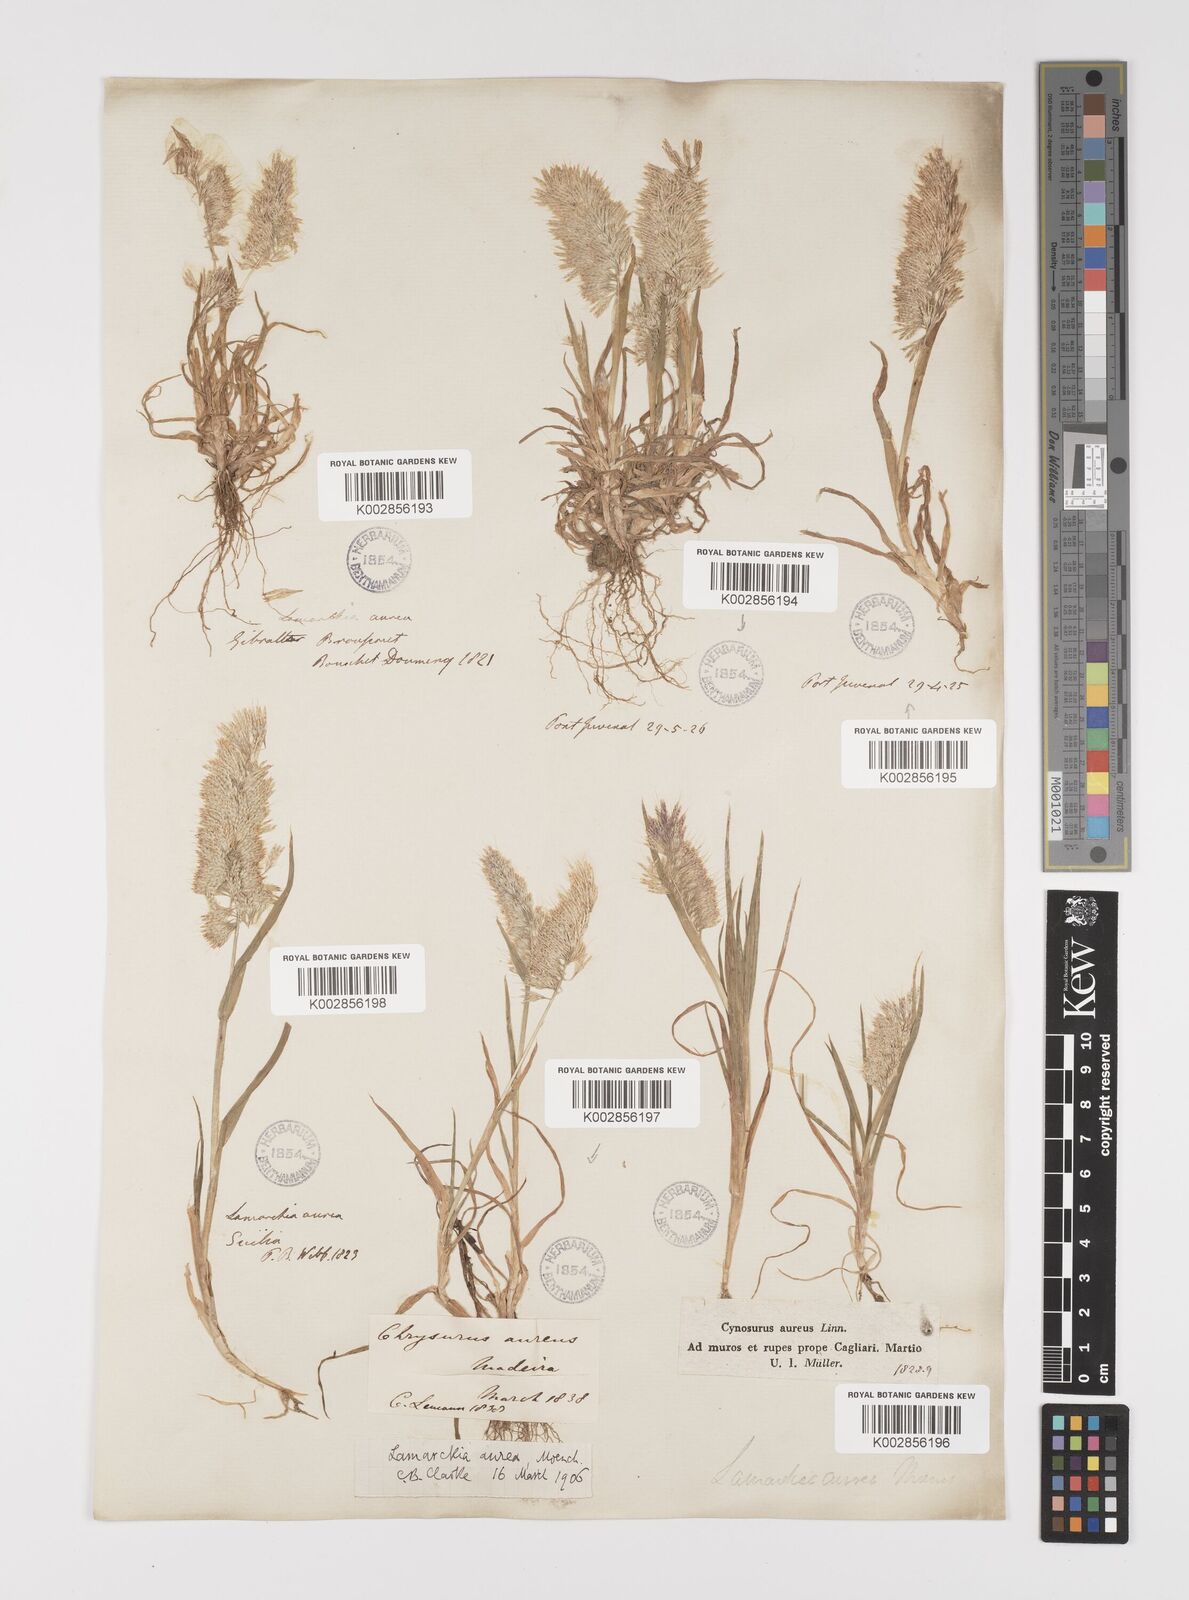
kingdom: Plantae
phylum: Tracheophyta
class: Liliopsida
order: Poales
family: Poaceae
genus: Lamarckia
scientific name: Lamarckia aurea
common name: Golden dog's-tail
